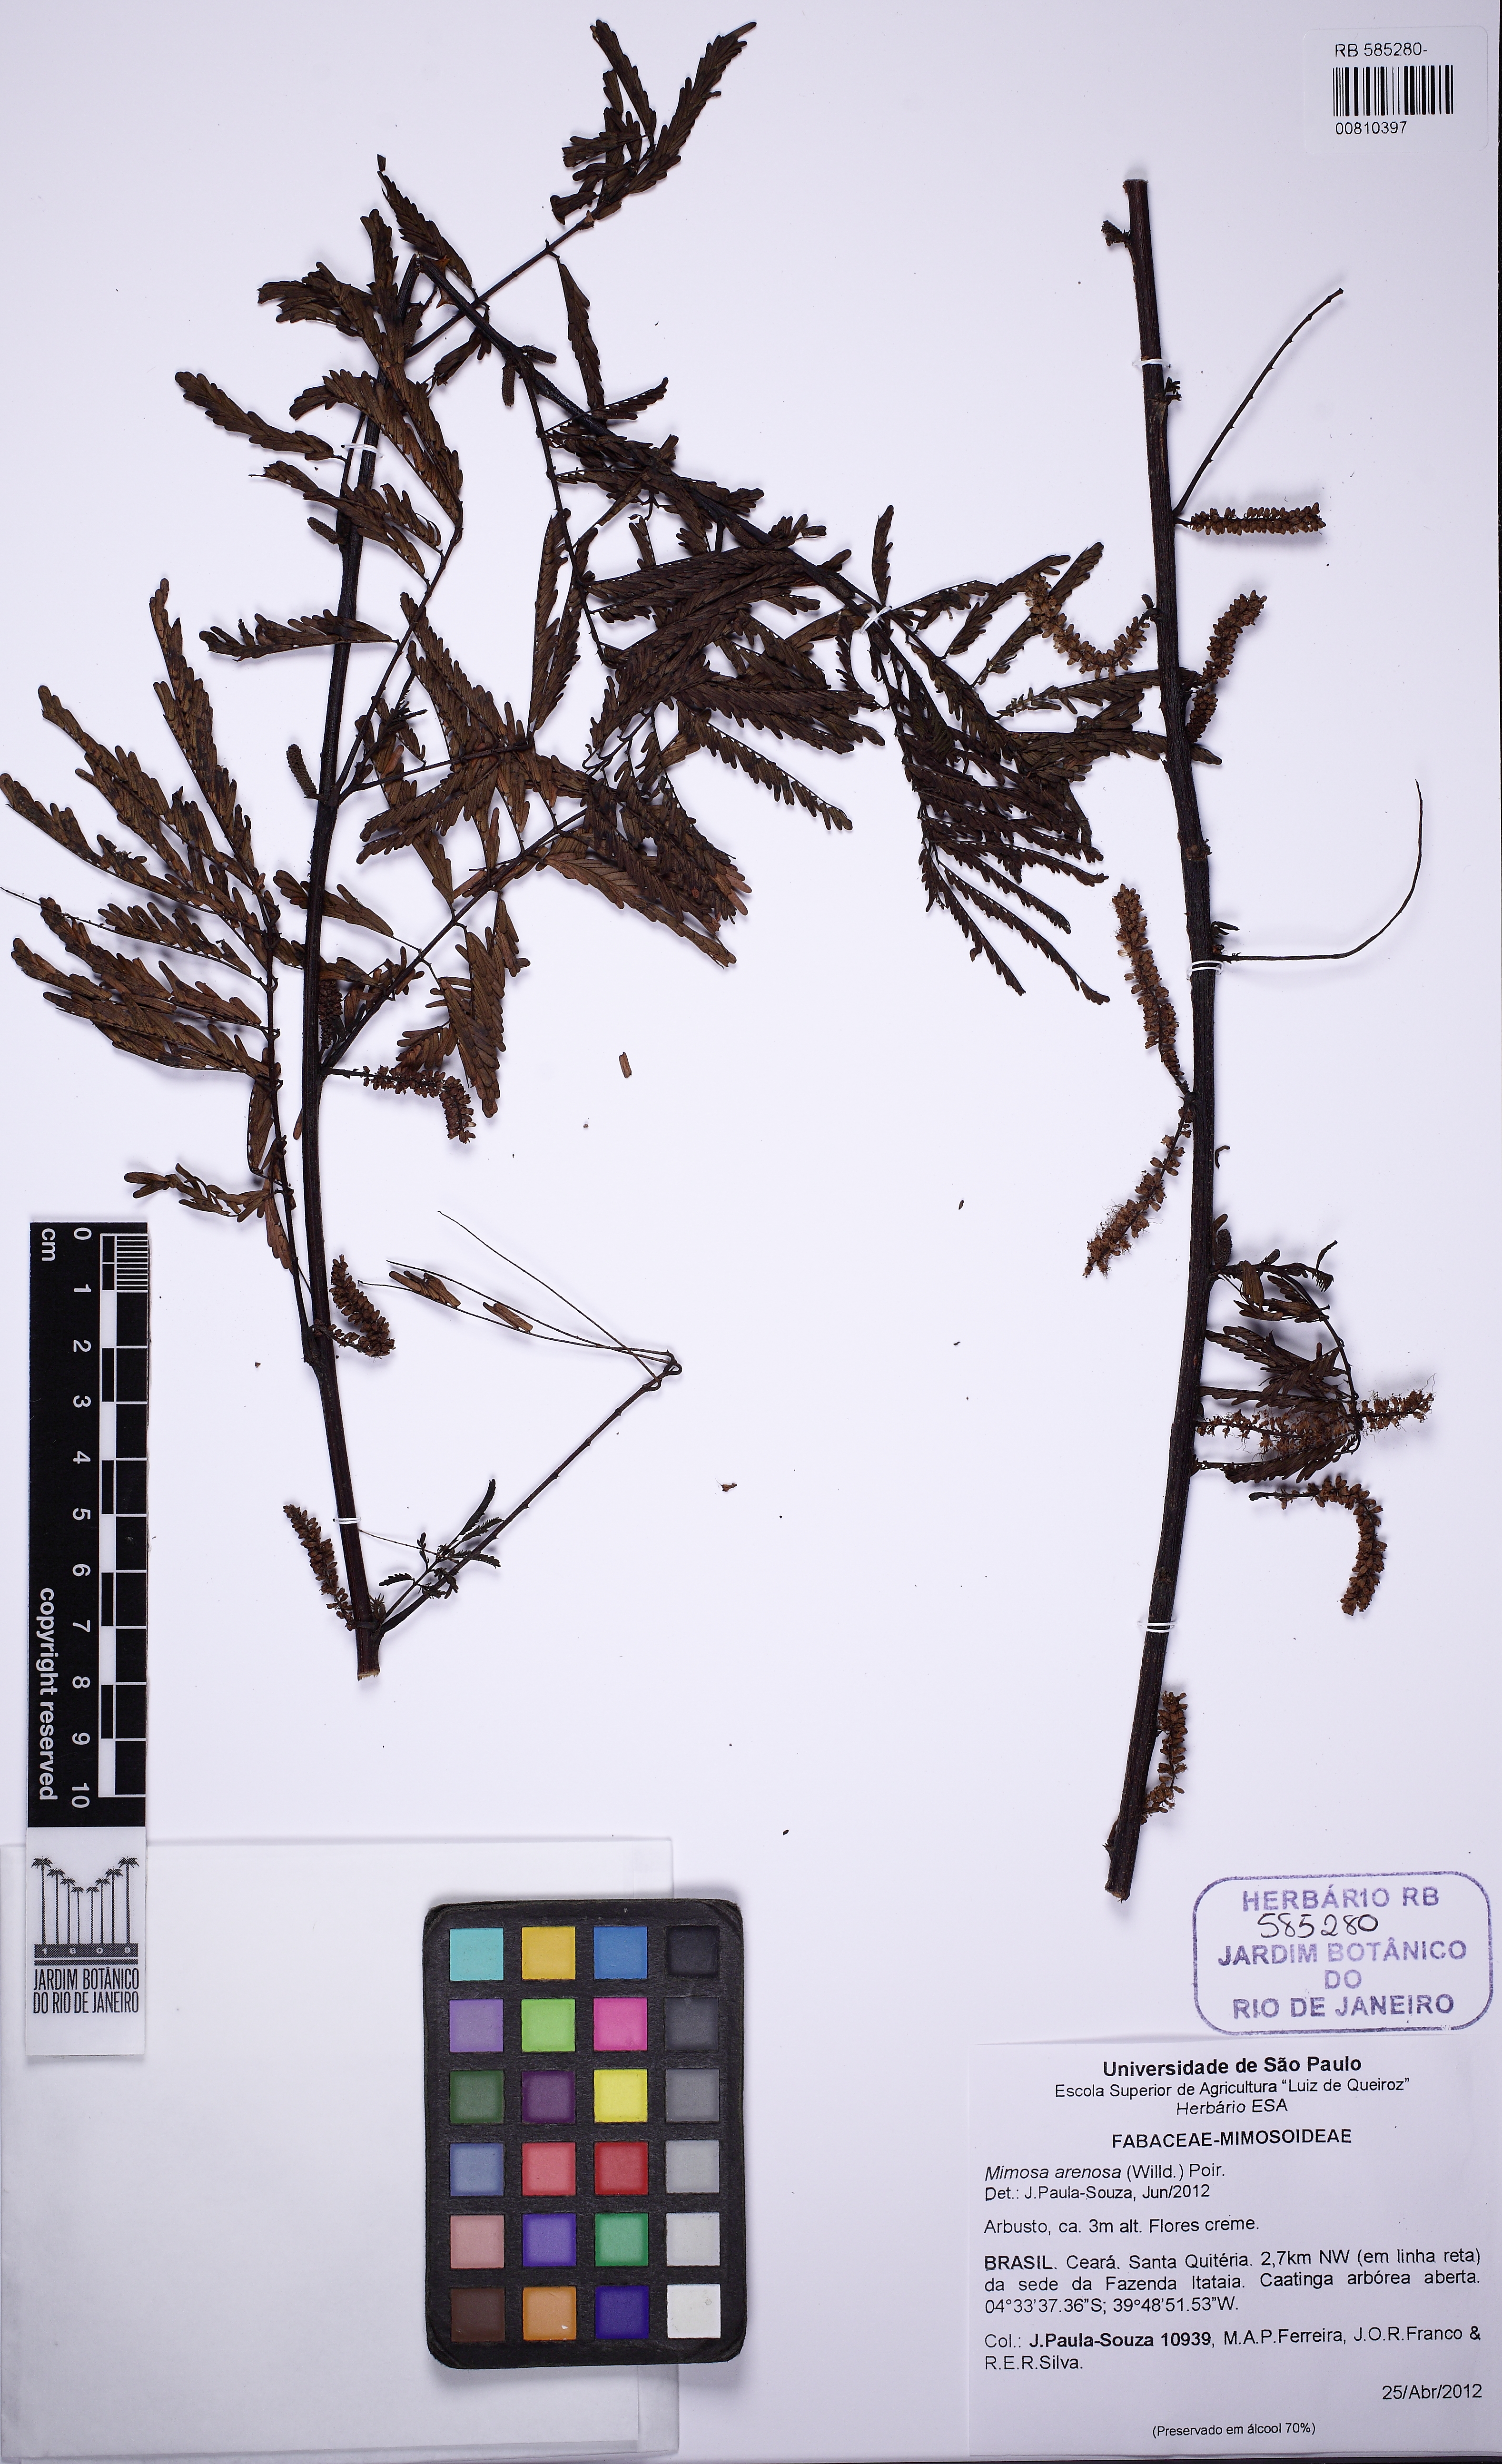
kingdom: Plantae
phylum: Tracheophyta
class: Magnoliopsida
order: Fabales
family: Fabaceae
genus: Mimosa
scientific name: Mimosa arenosa
